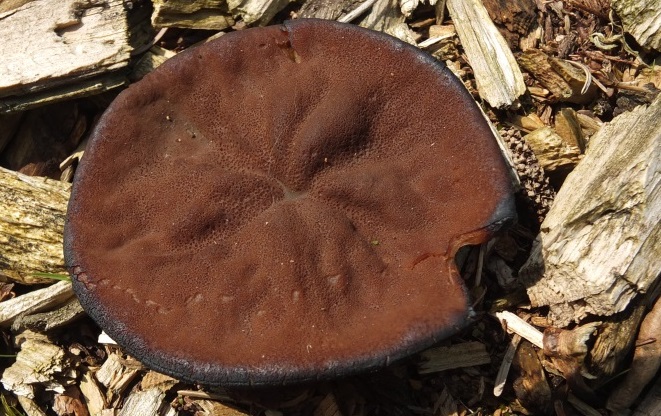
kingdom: Fungi
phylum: Ascomycota
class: Pezizomycetes
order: Pezizales
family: Discinaceae
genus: Discina
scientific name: Discina ancilis
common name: udbredt stenmorkel
